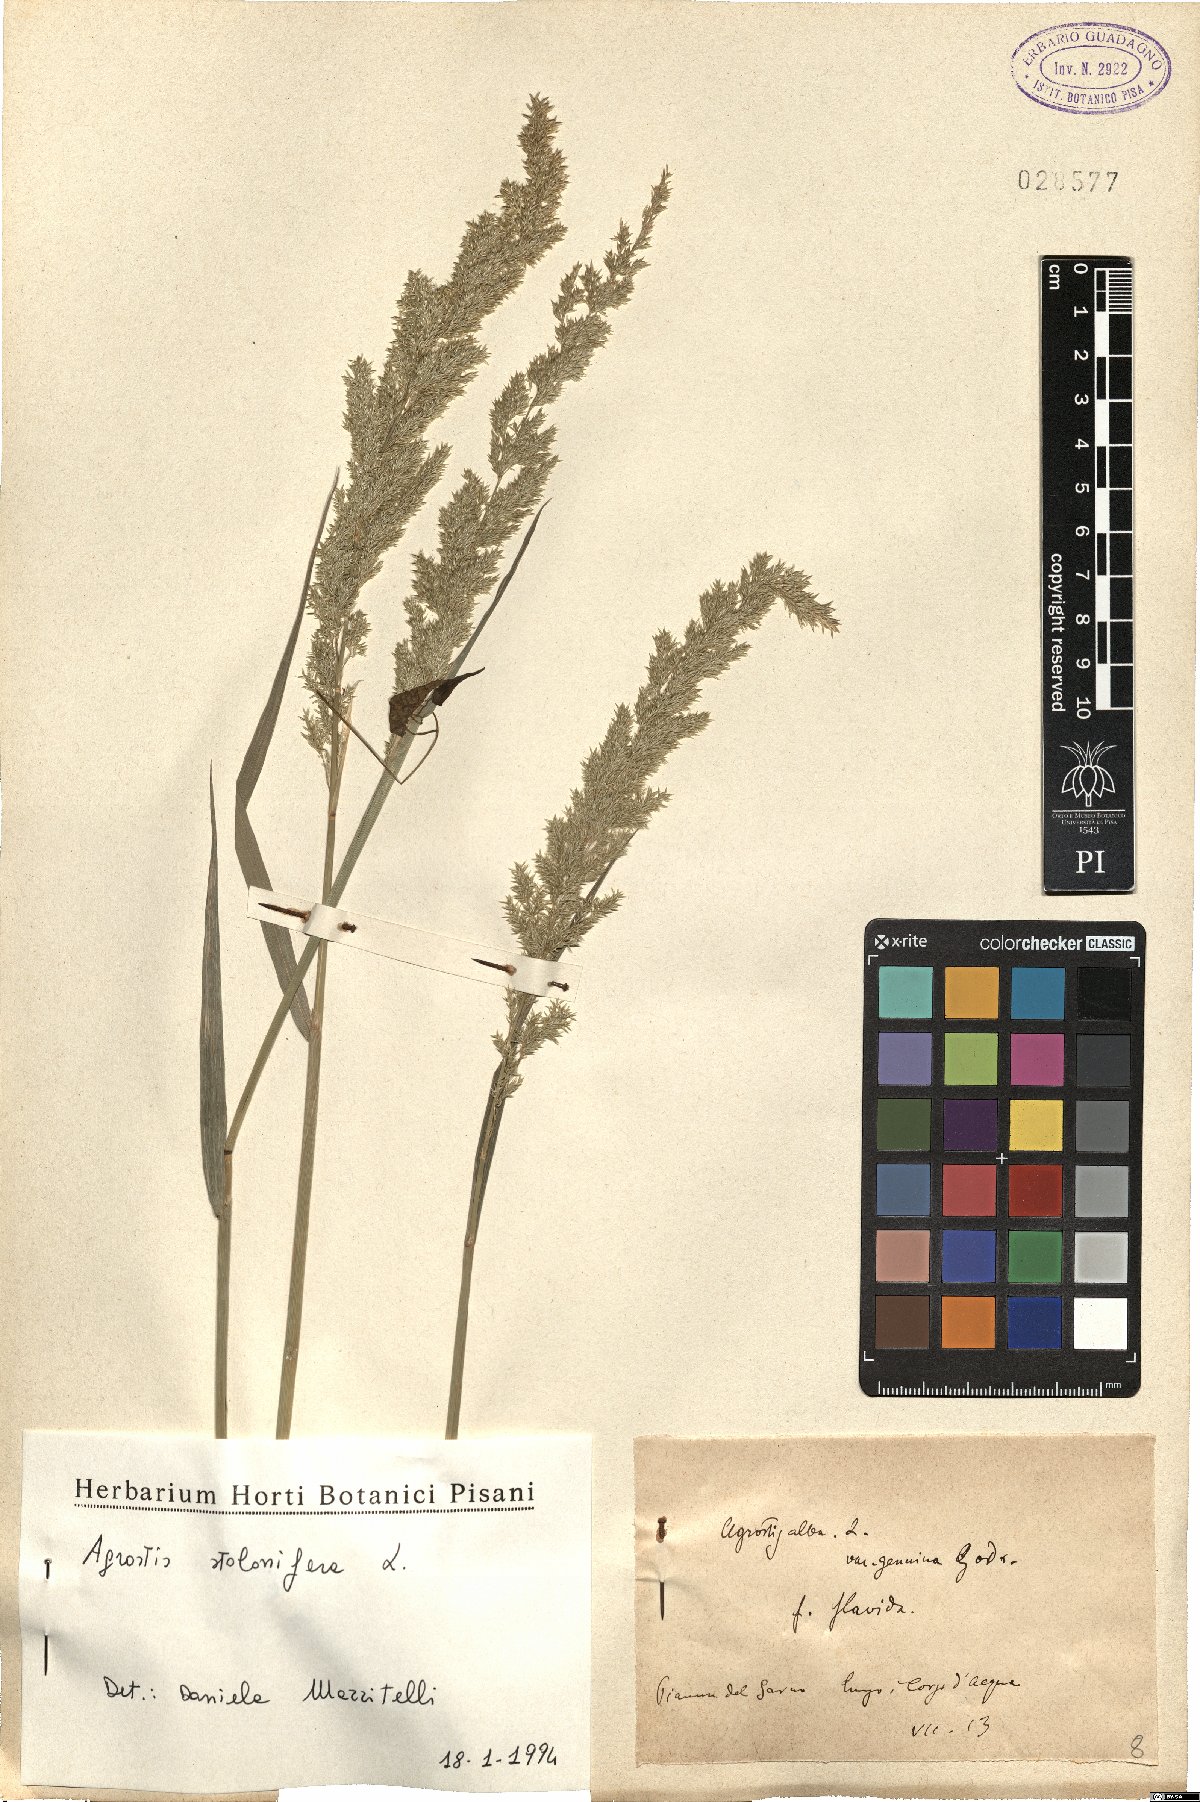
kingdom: Plantae
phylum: Tracheophyta
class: Liliopsida
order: Poales
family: Poaceae
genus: Agrostis
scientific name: Agrostis stolonifera
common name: Creeping bentgrass
